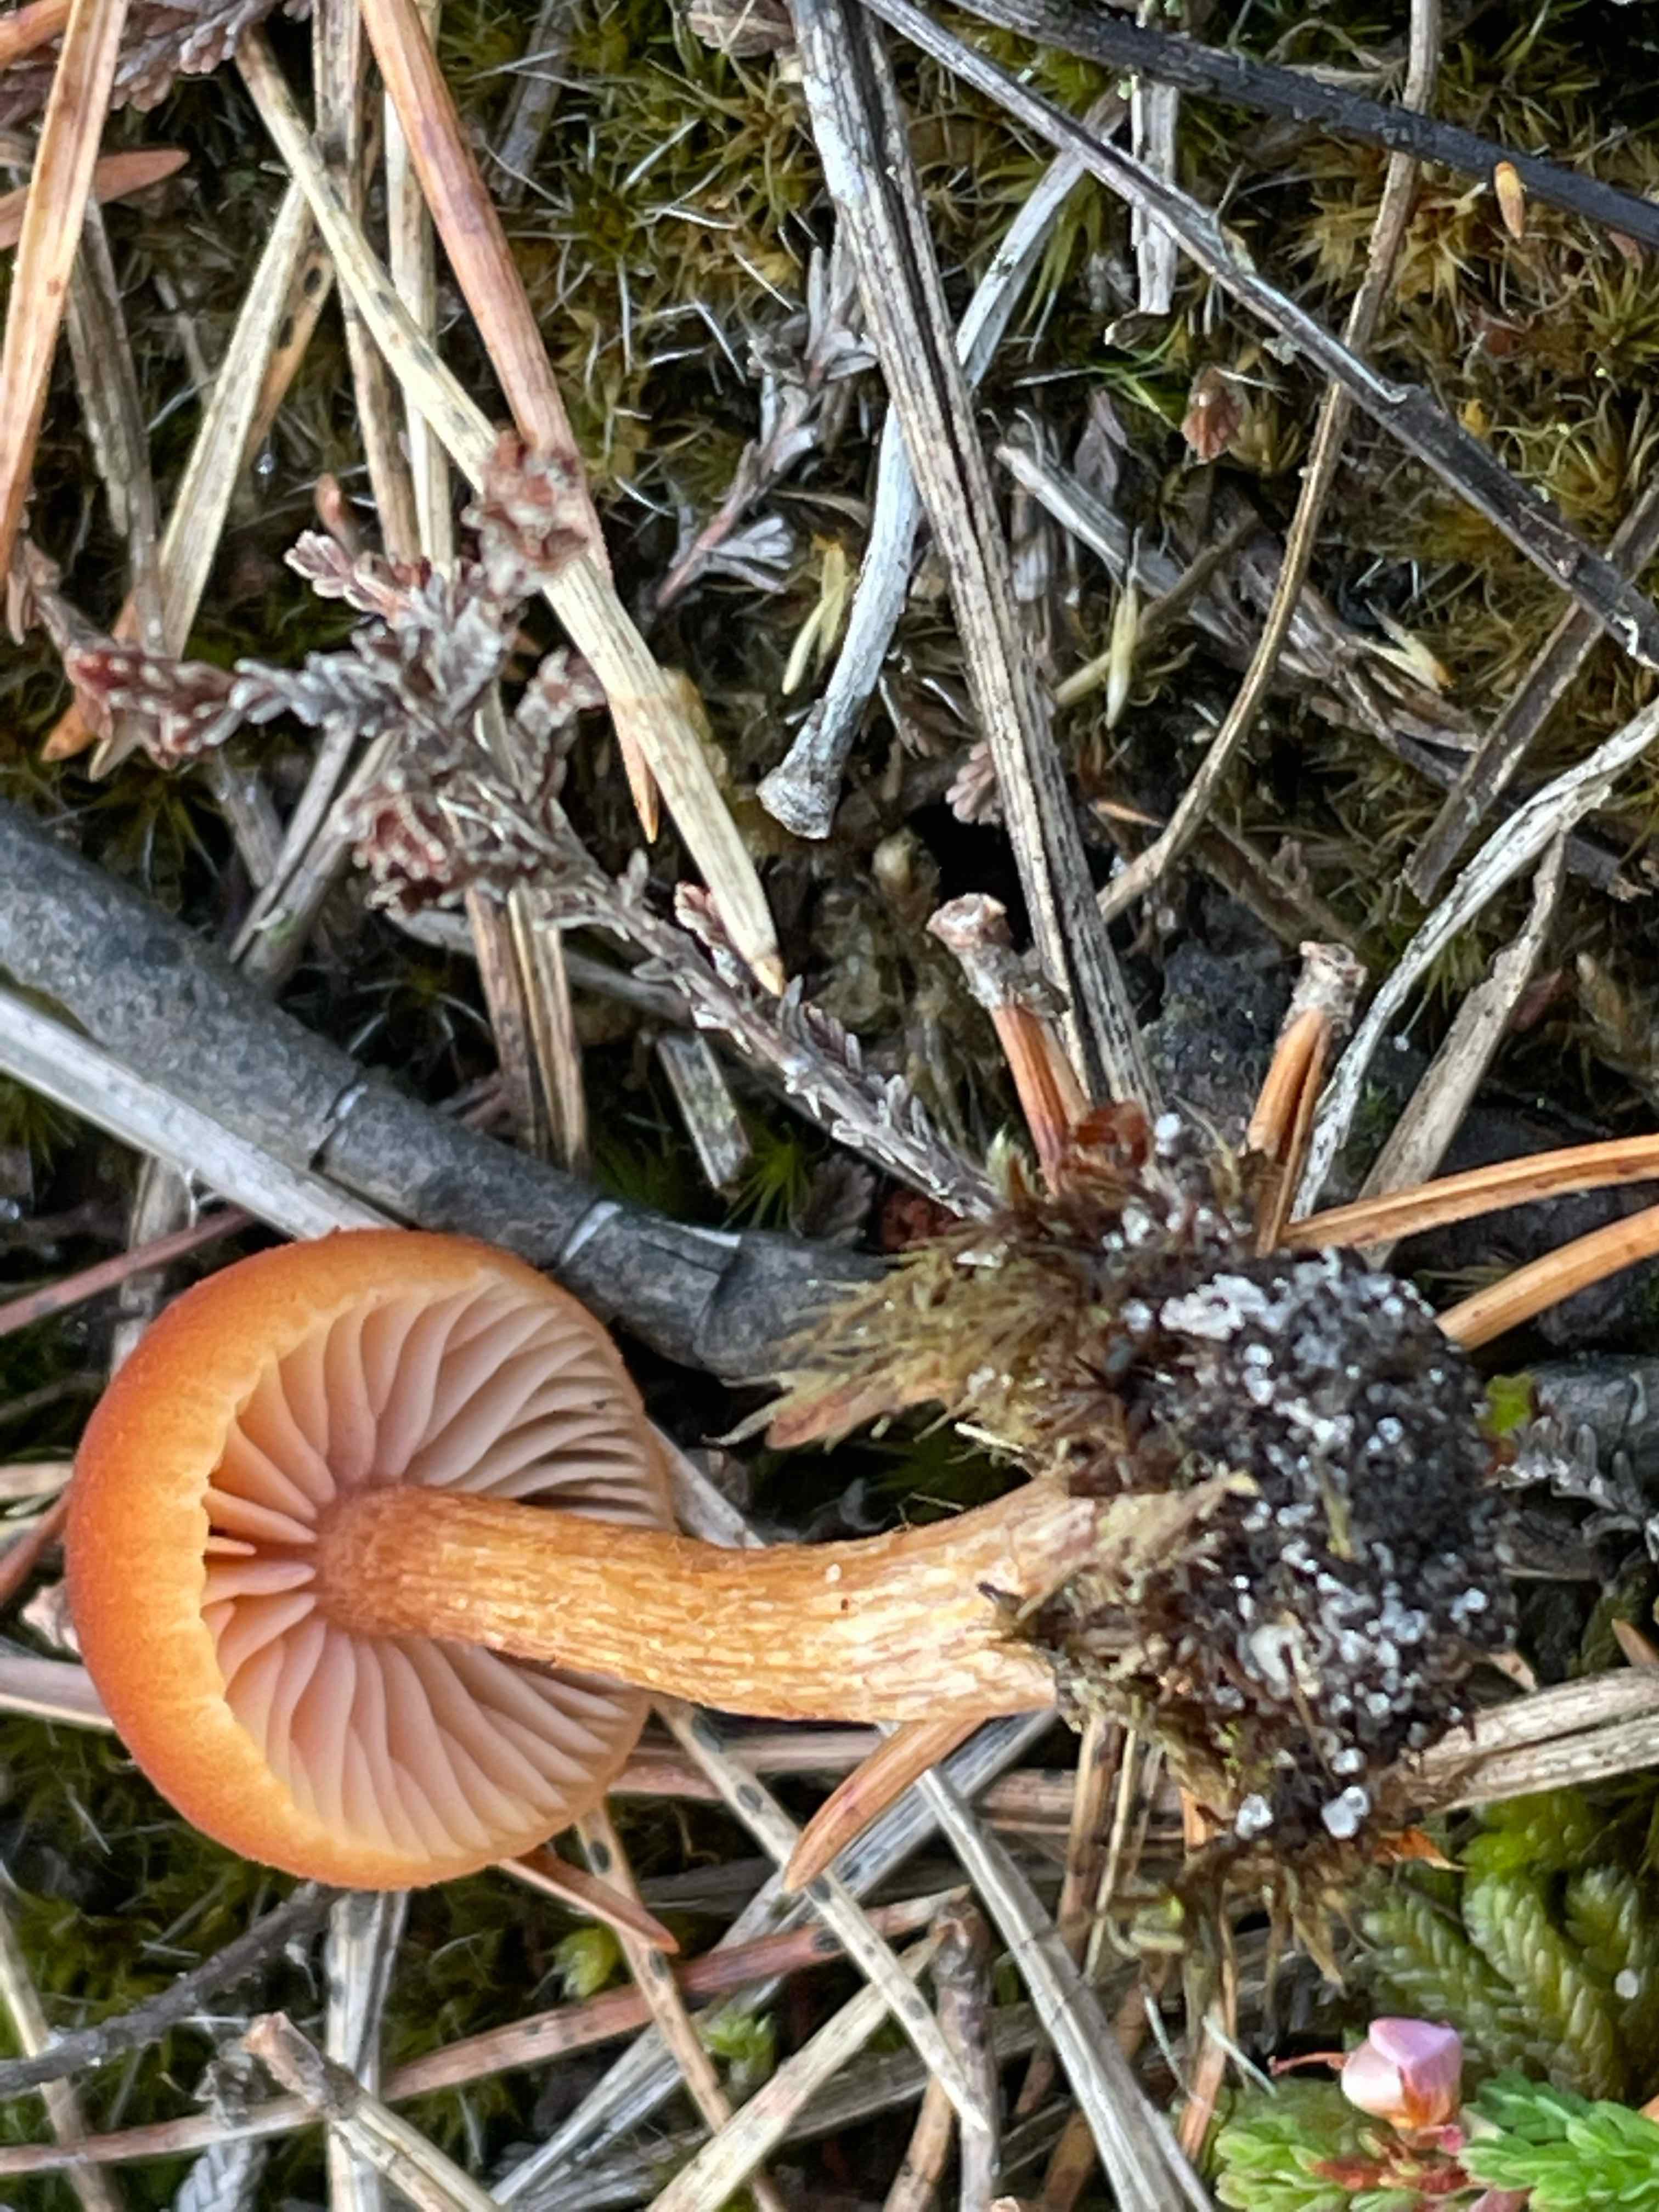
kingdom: Fungi
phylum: Basidiomycota
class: Agaricomycetes
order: Agaricales
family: Hydnangiaceae
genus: Laccaria
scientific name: Laccaria proxima
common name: stor ametysthat
